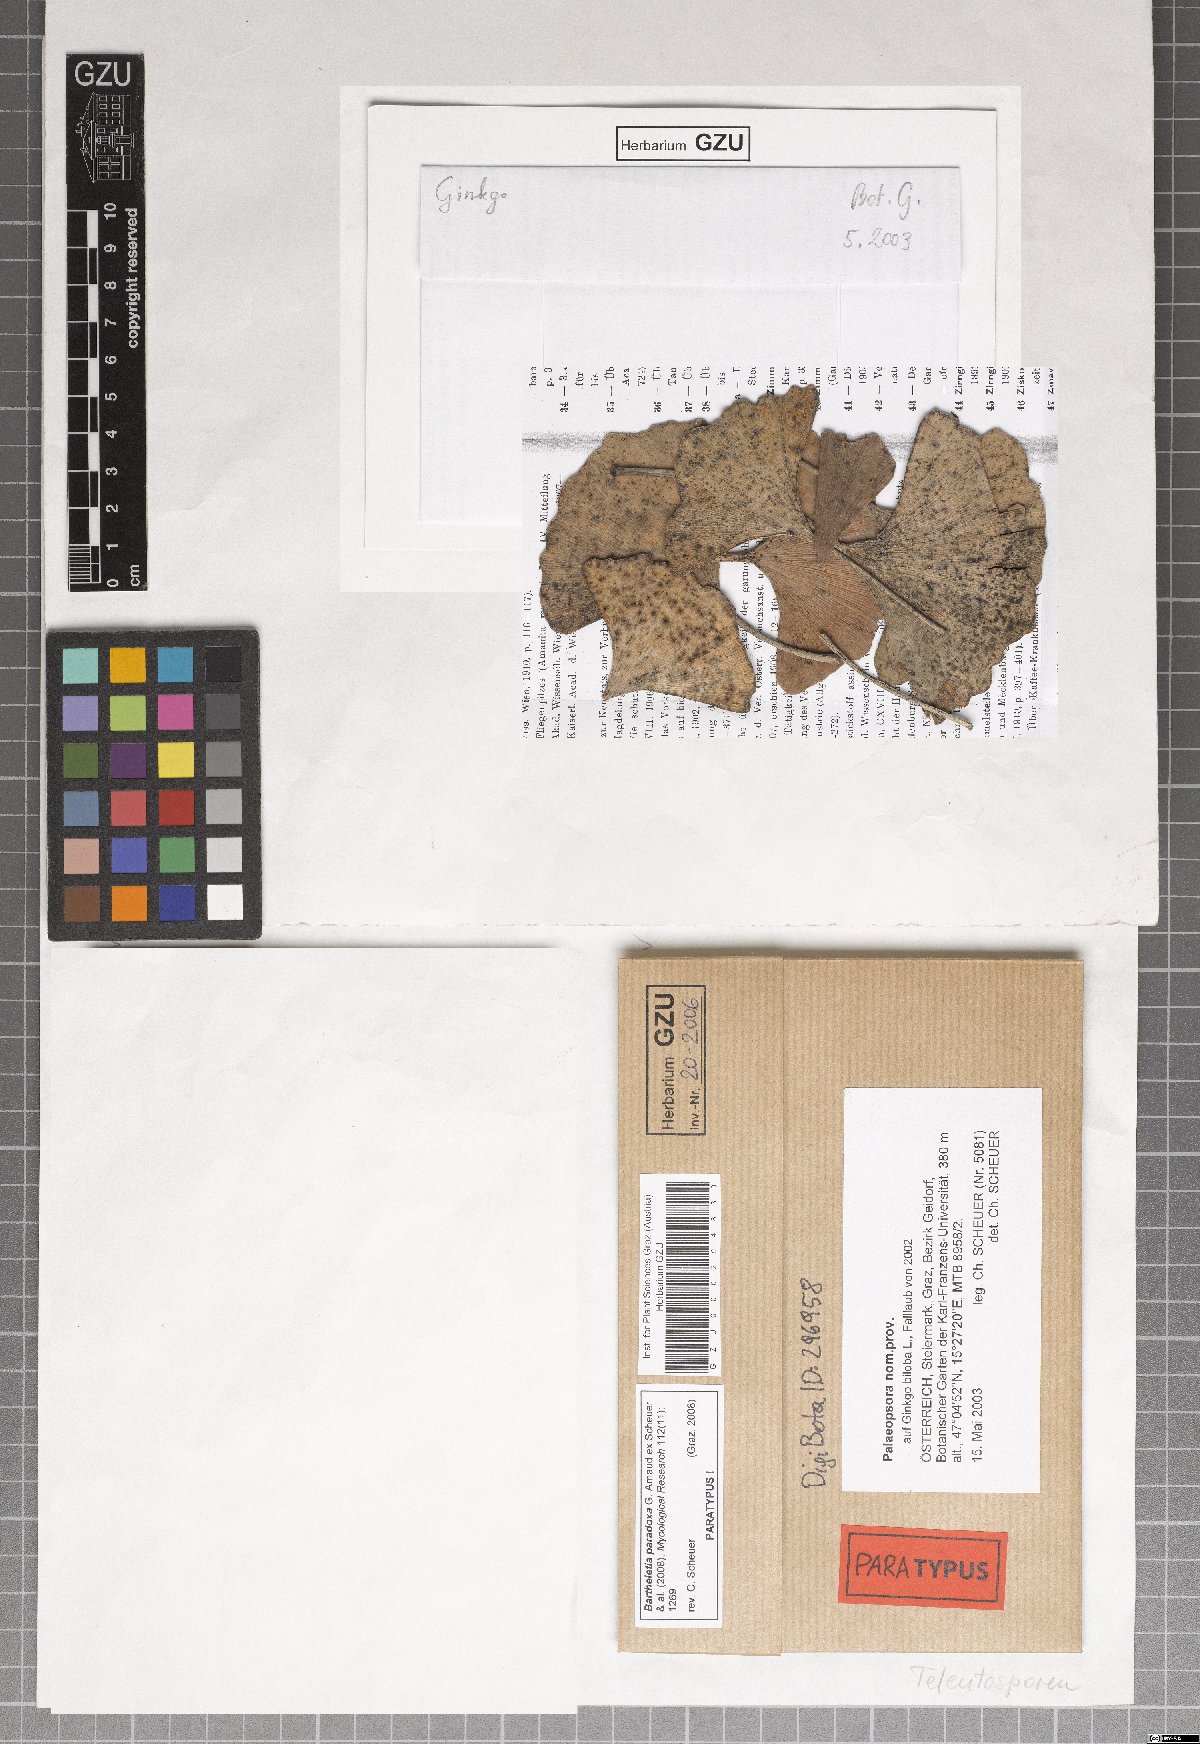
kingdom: Fungi
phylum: Basidiomycota
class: Wallemiomycetes
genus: Bartheletia
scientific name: Bartheletia paradoxa
